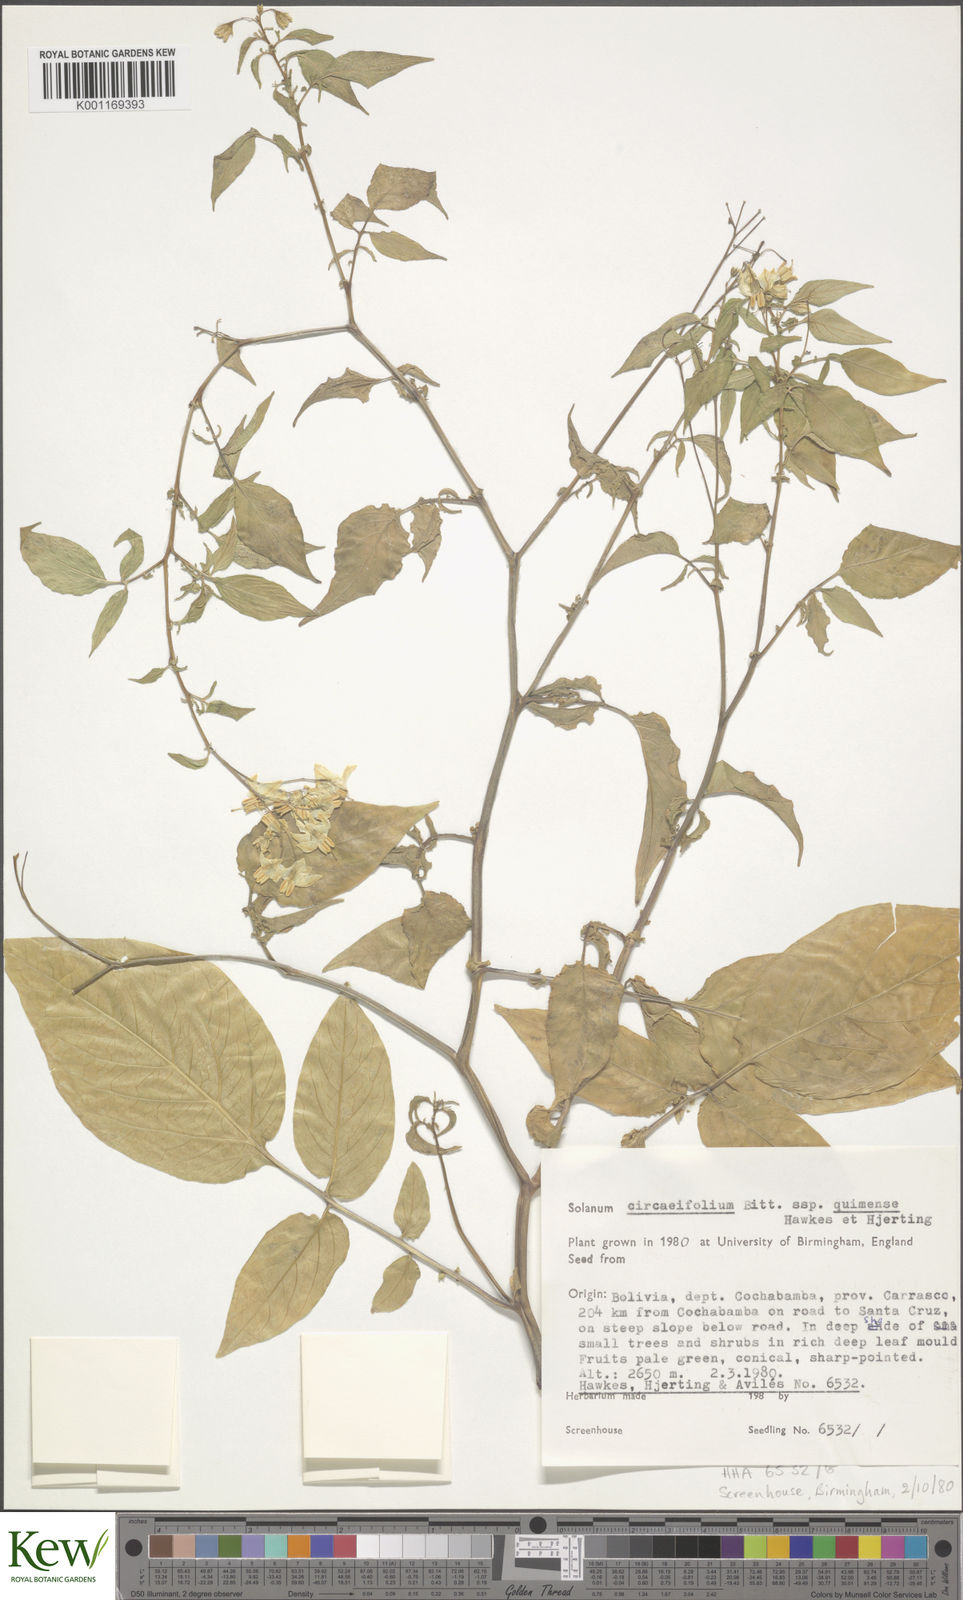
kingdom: Plantae
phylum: Tracheophyta
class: Magnoliopsida
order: Solanales
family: Solanaceae
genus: Solanum
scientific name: Solanum stipuloideum
